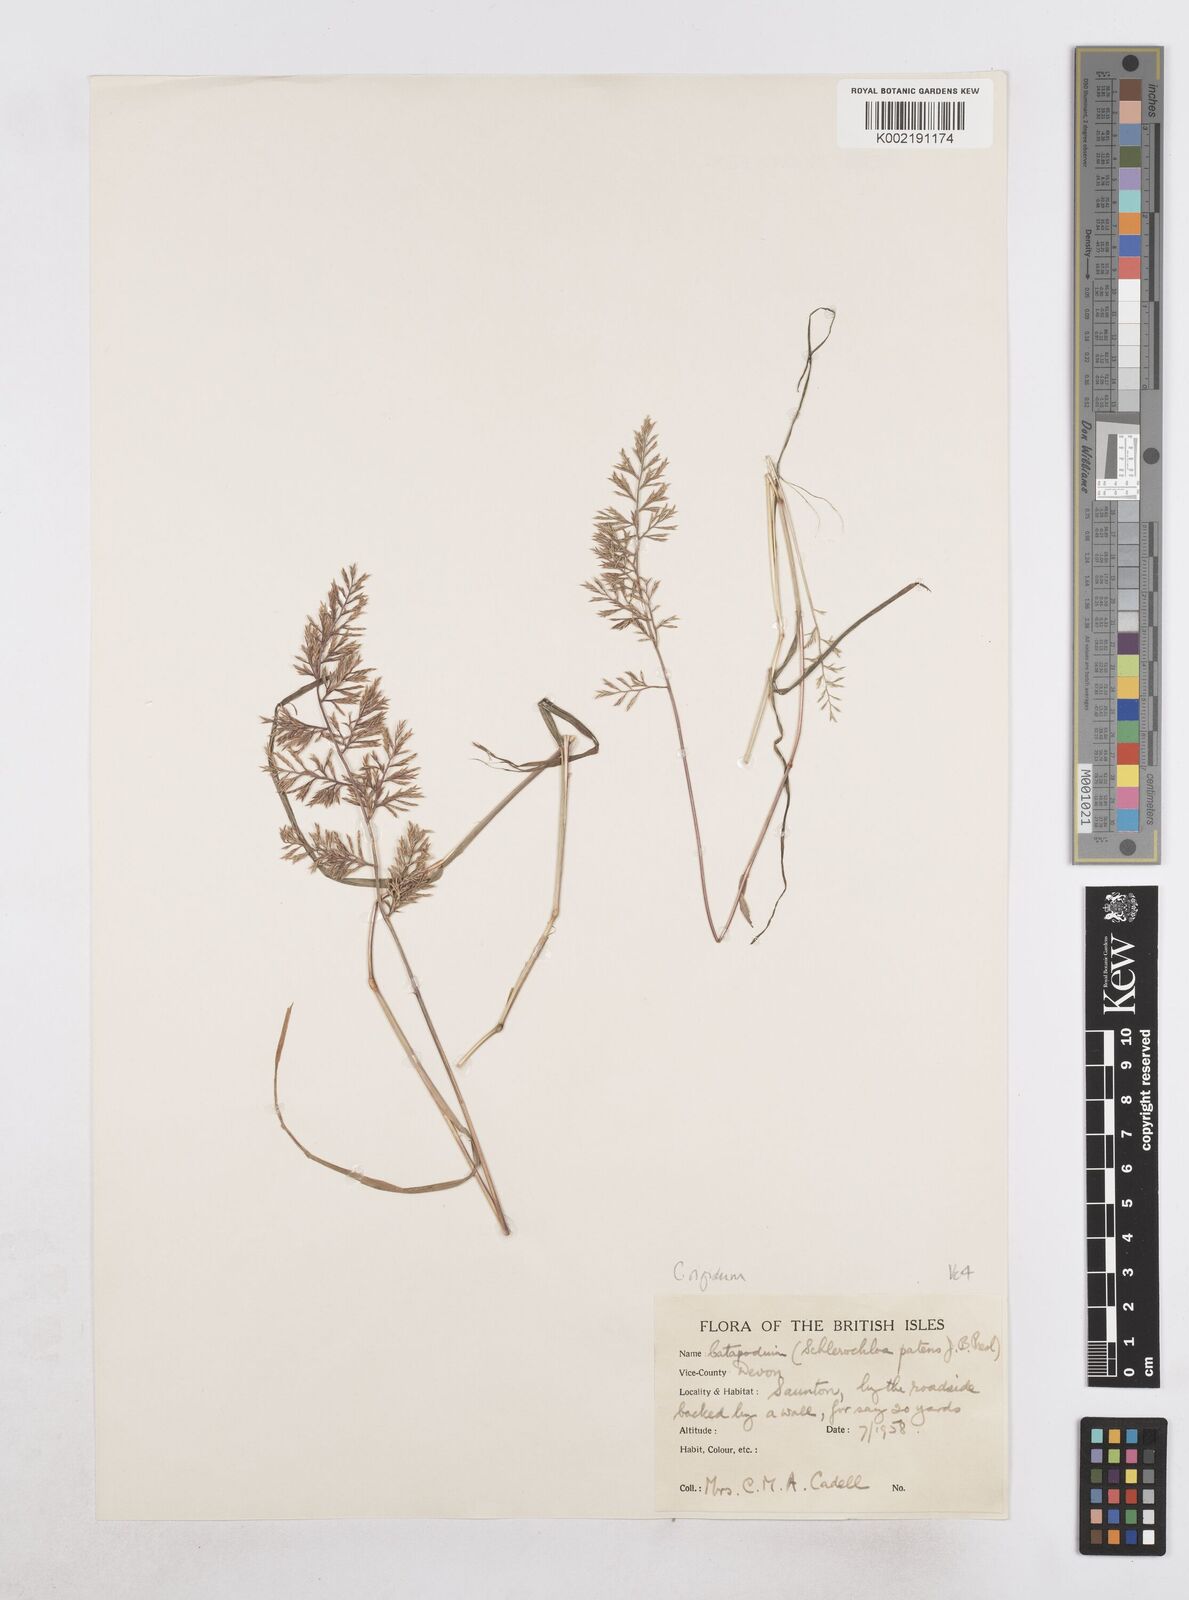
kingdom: Plantae
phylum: Tracheophyta
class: Liliopsida
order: Poales
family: Poaceae
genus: Catapodium
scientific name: Catapodium rigidum
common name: Fern-grass
